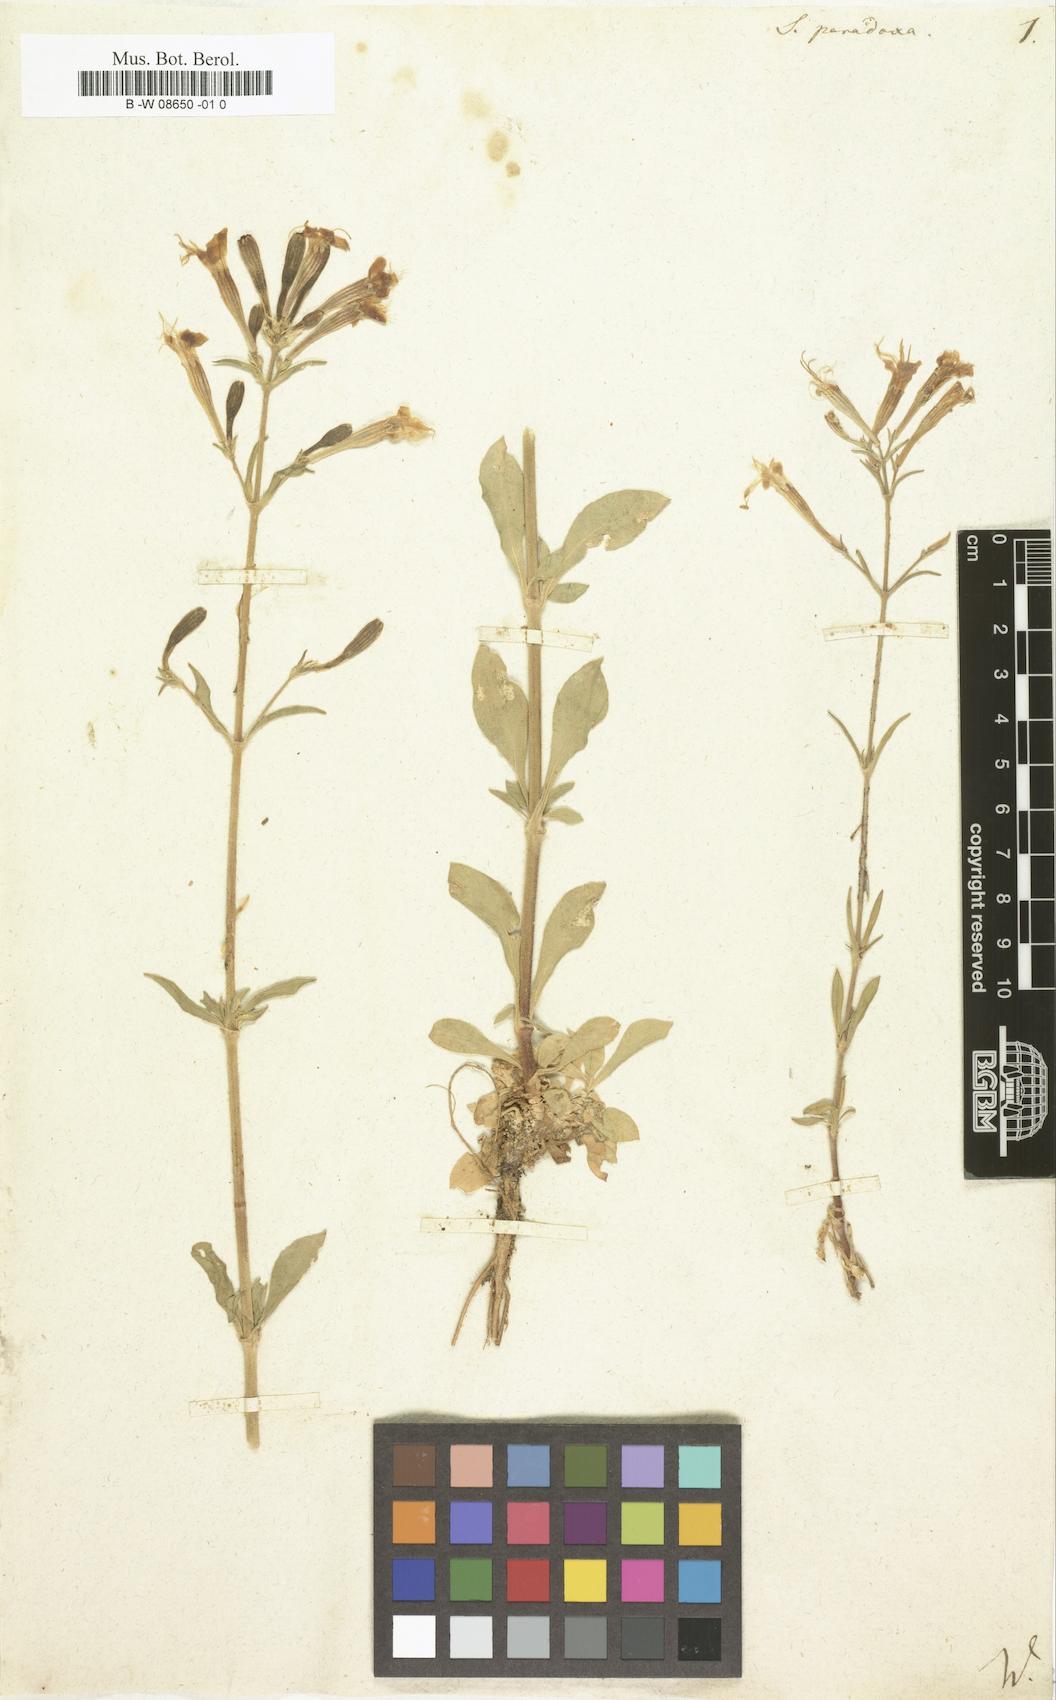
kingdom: Plantae
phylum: Tracheophyta
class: Magnoliopsida
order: Caryophyllales
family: Caryophyllaceae
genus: Silene
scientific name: Silene paradoxa
